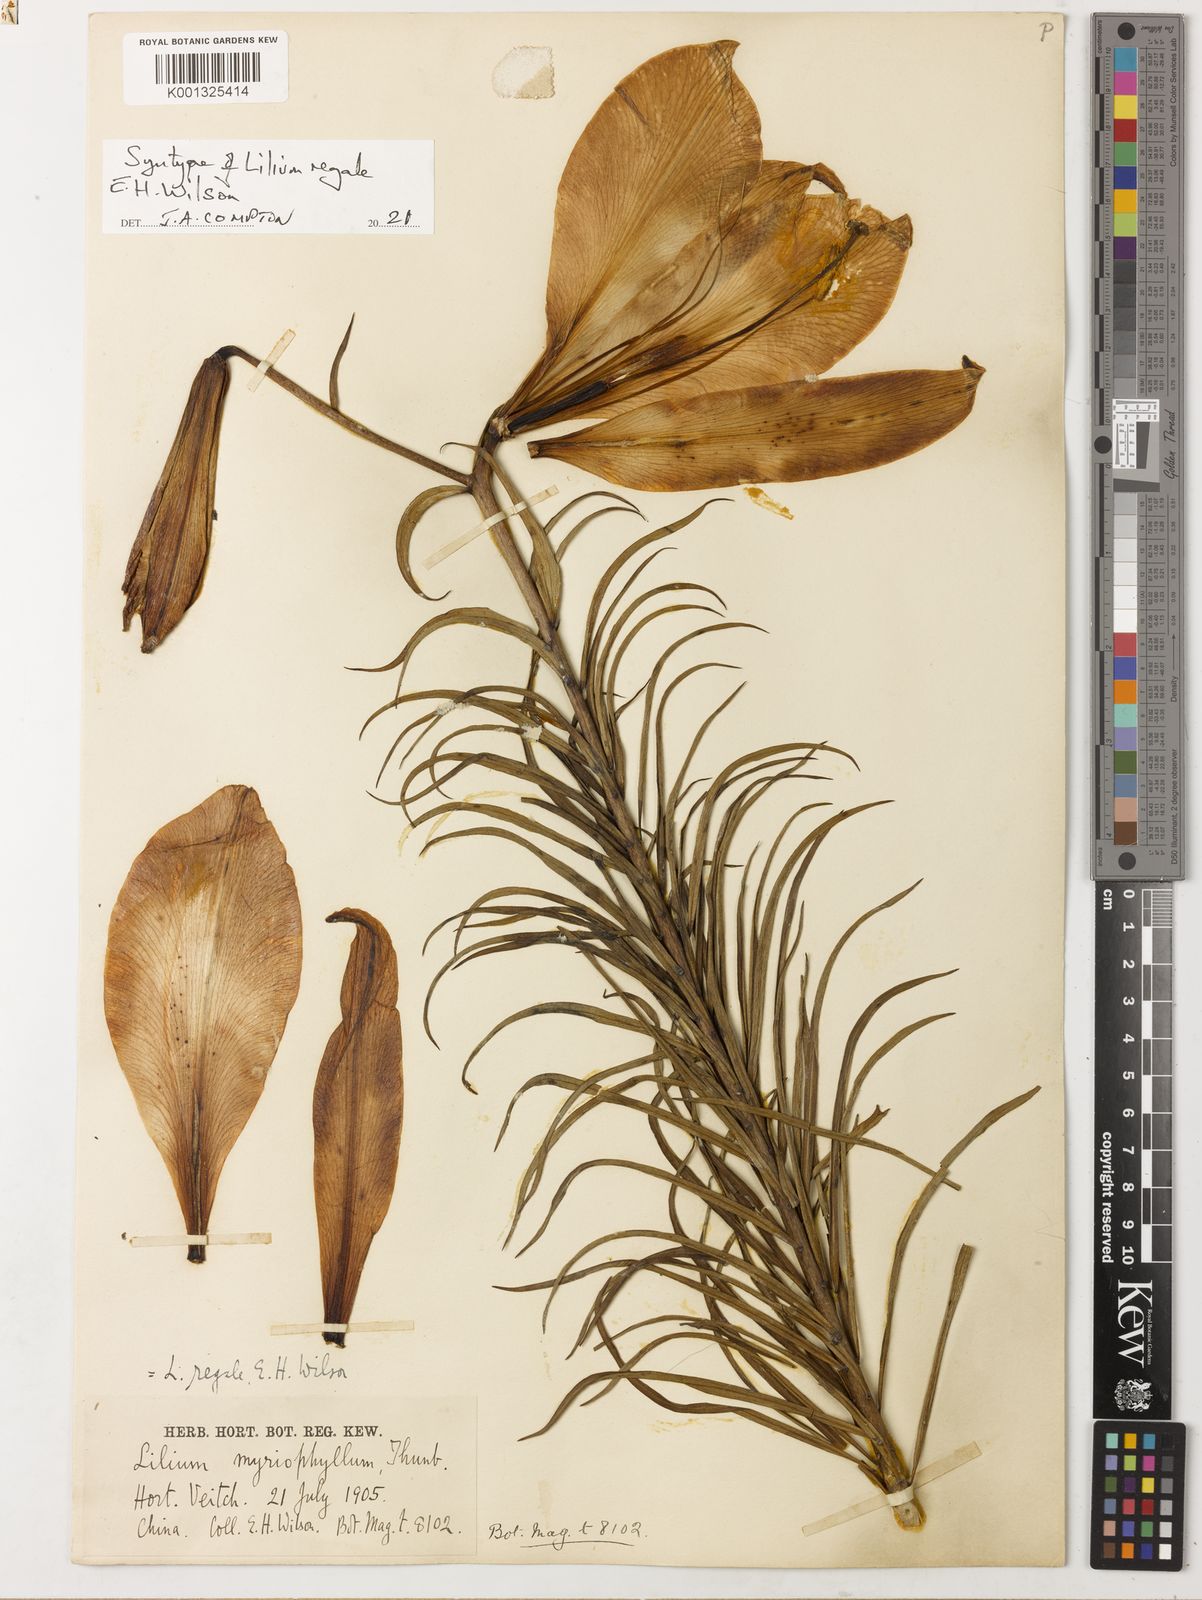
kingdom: Plantae
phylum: Tracheophyta
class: Liliopsida
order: Liliales
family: Liliaceae
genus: Lilium
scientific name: Lilium regale
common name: Regal lily
